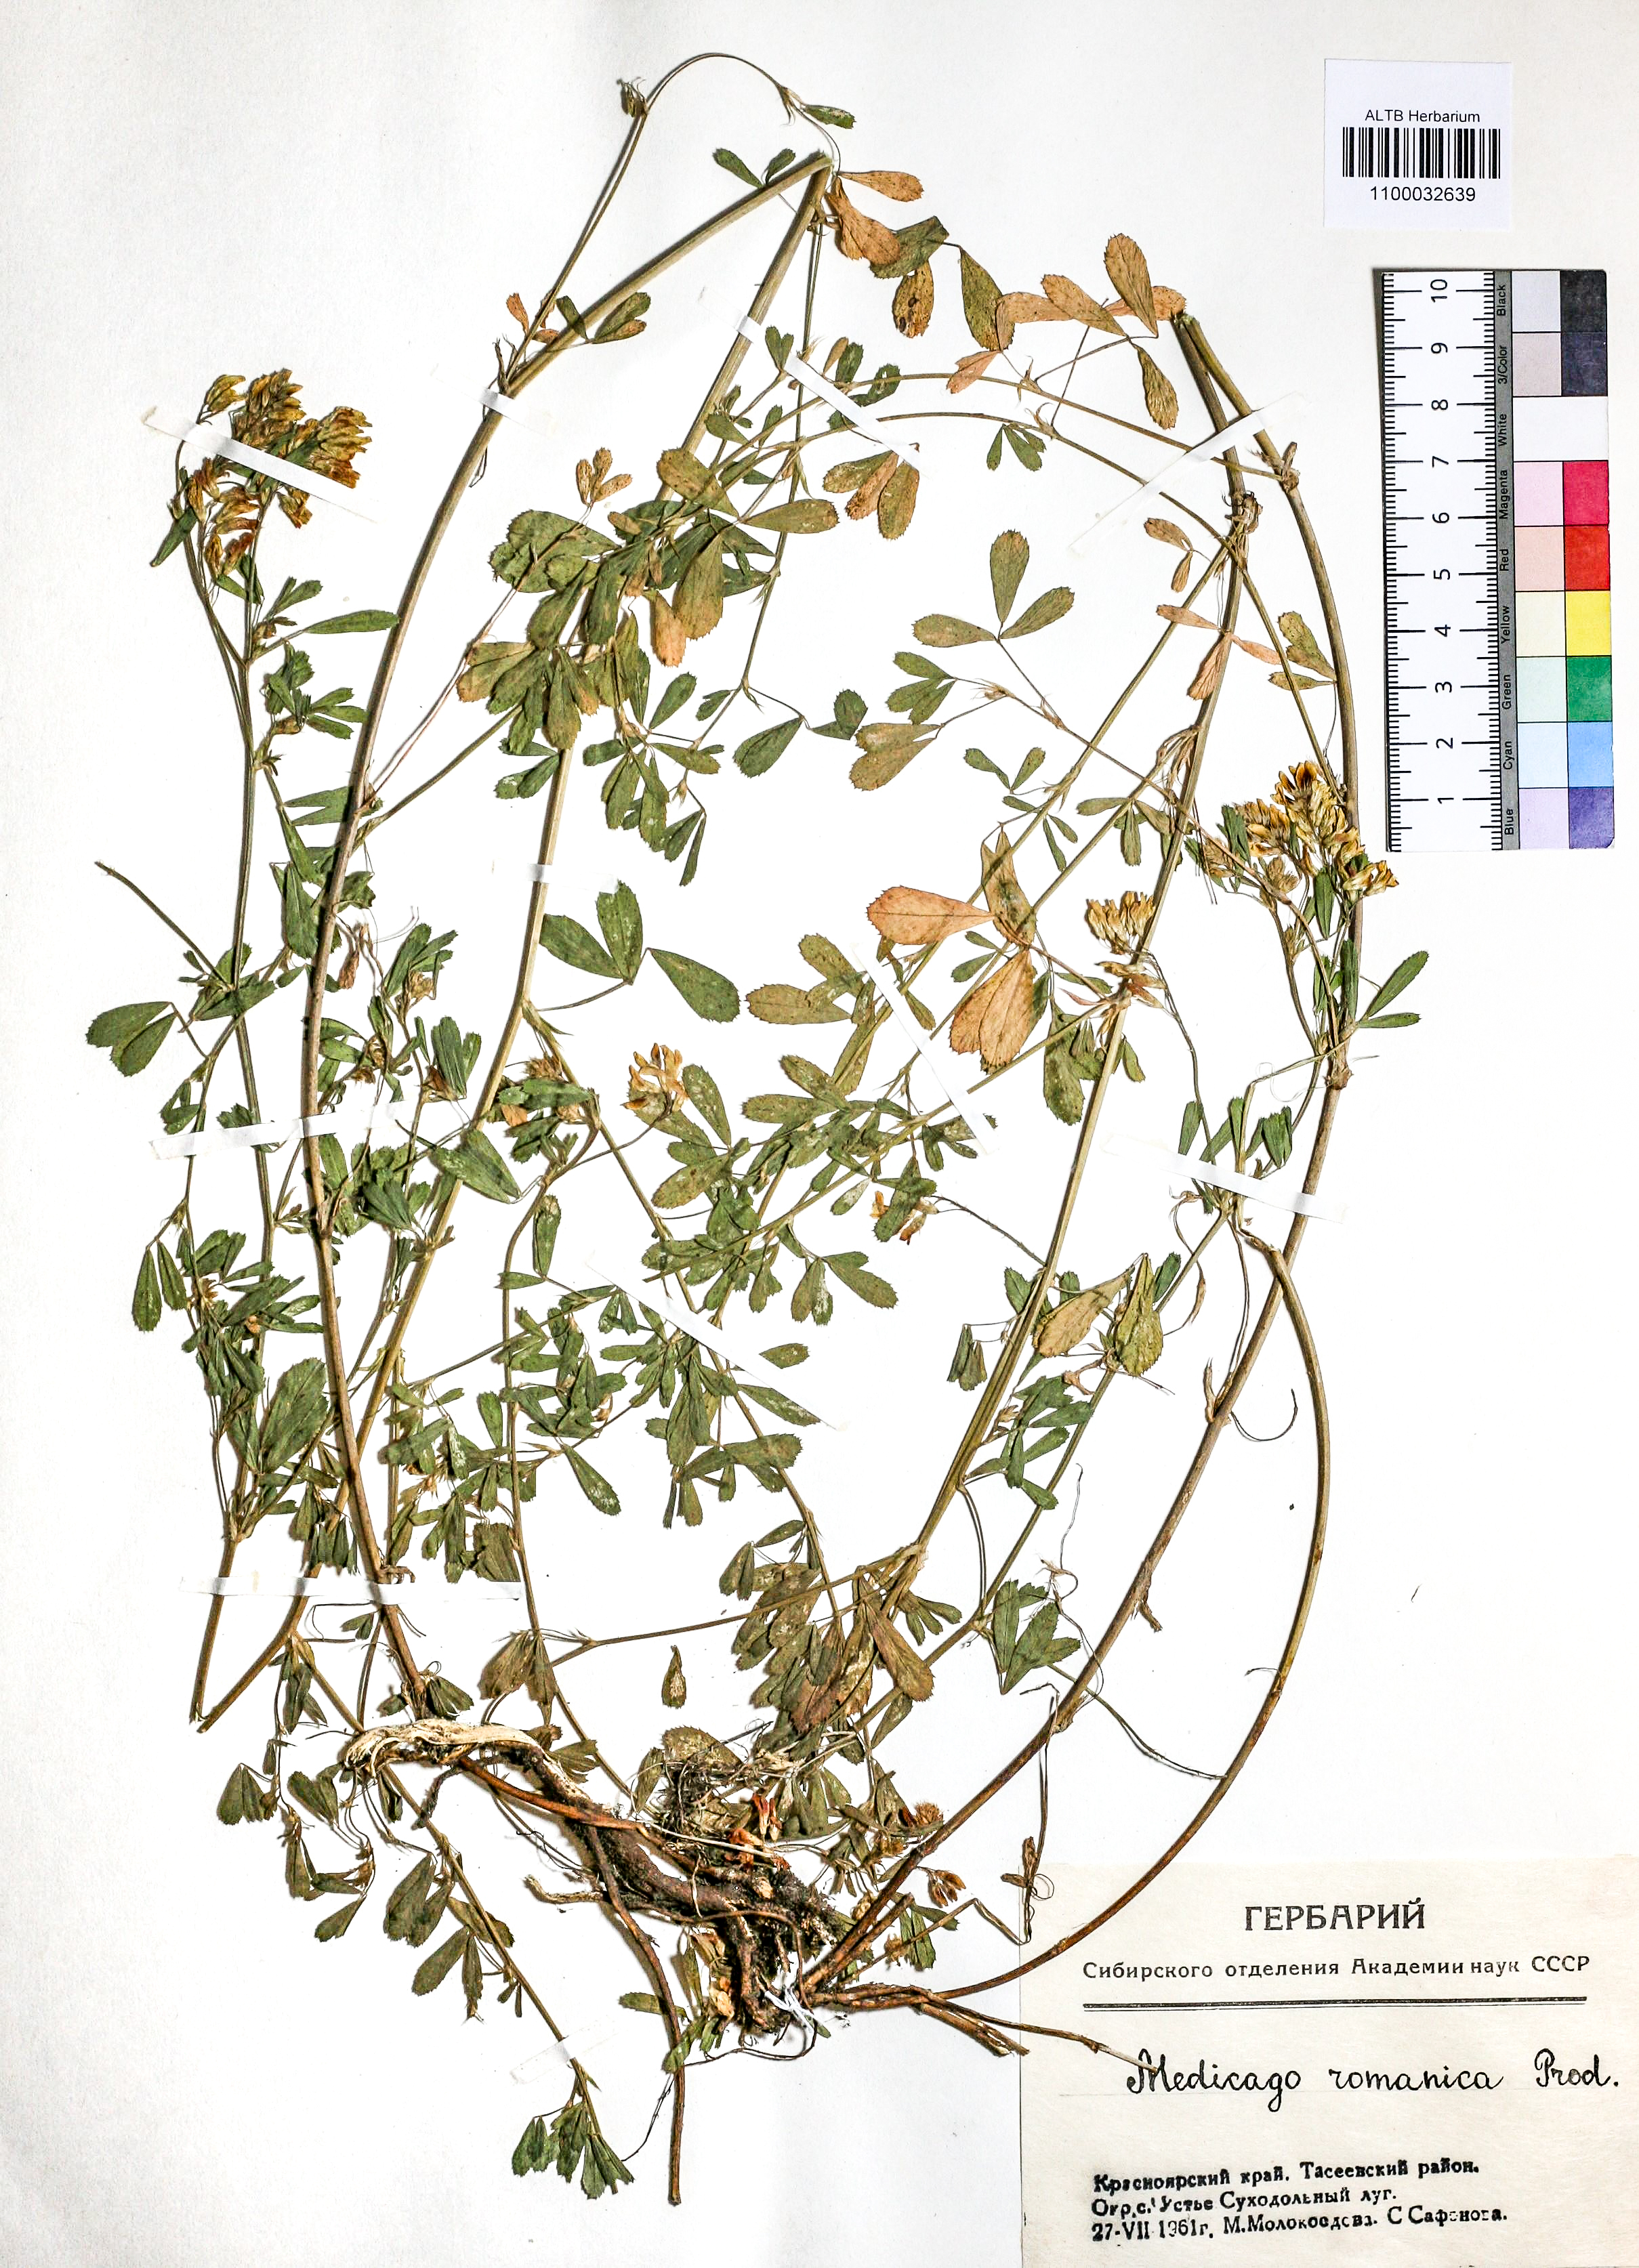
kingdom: Plantae
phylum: Tracheophyta
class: Magnoliopsida
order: Fabales
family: Fabaceae
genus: Medicago
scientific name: Medicago falcata
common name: Sickle medick
